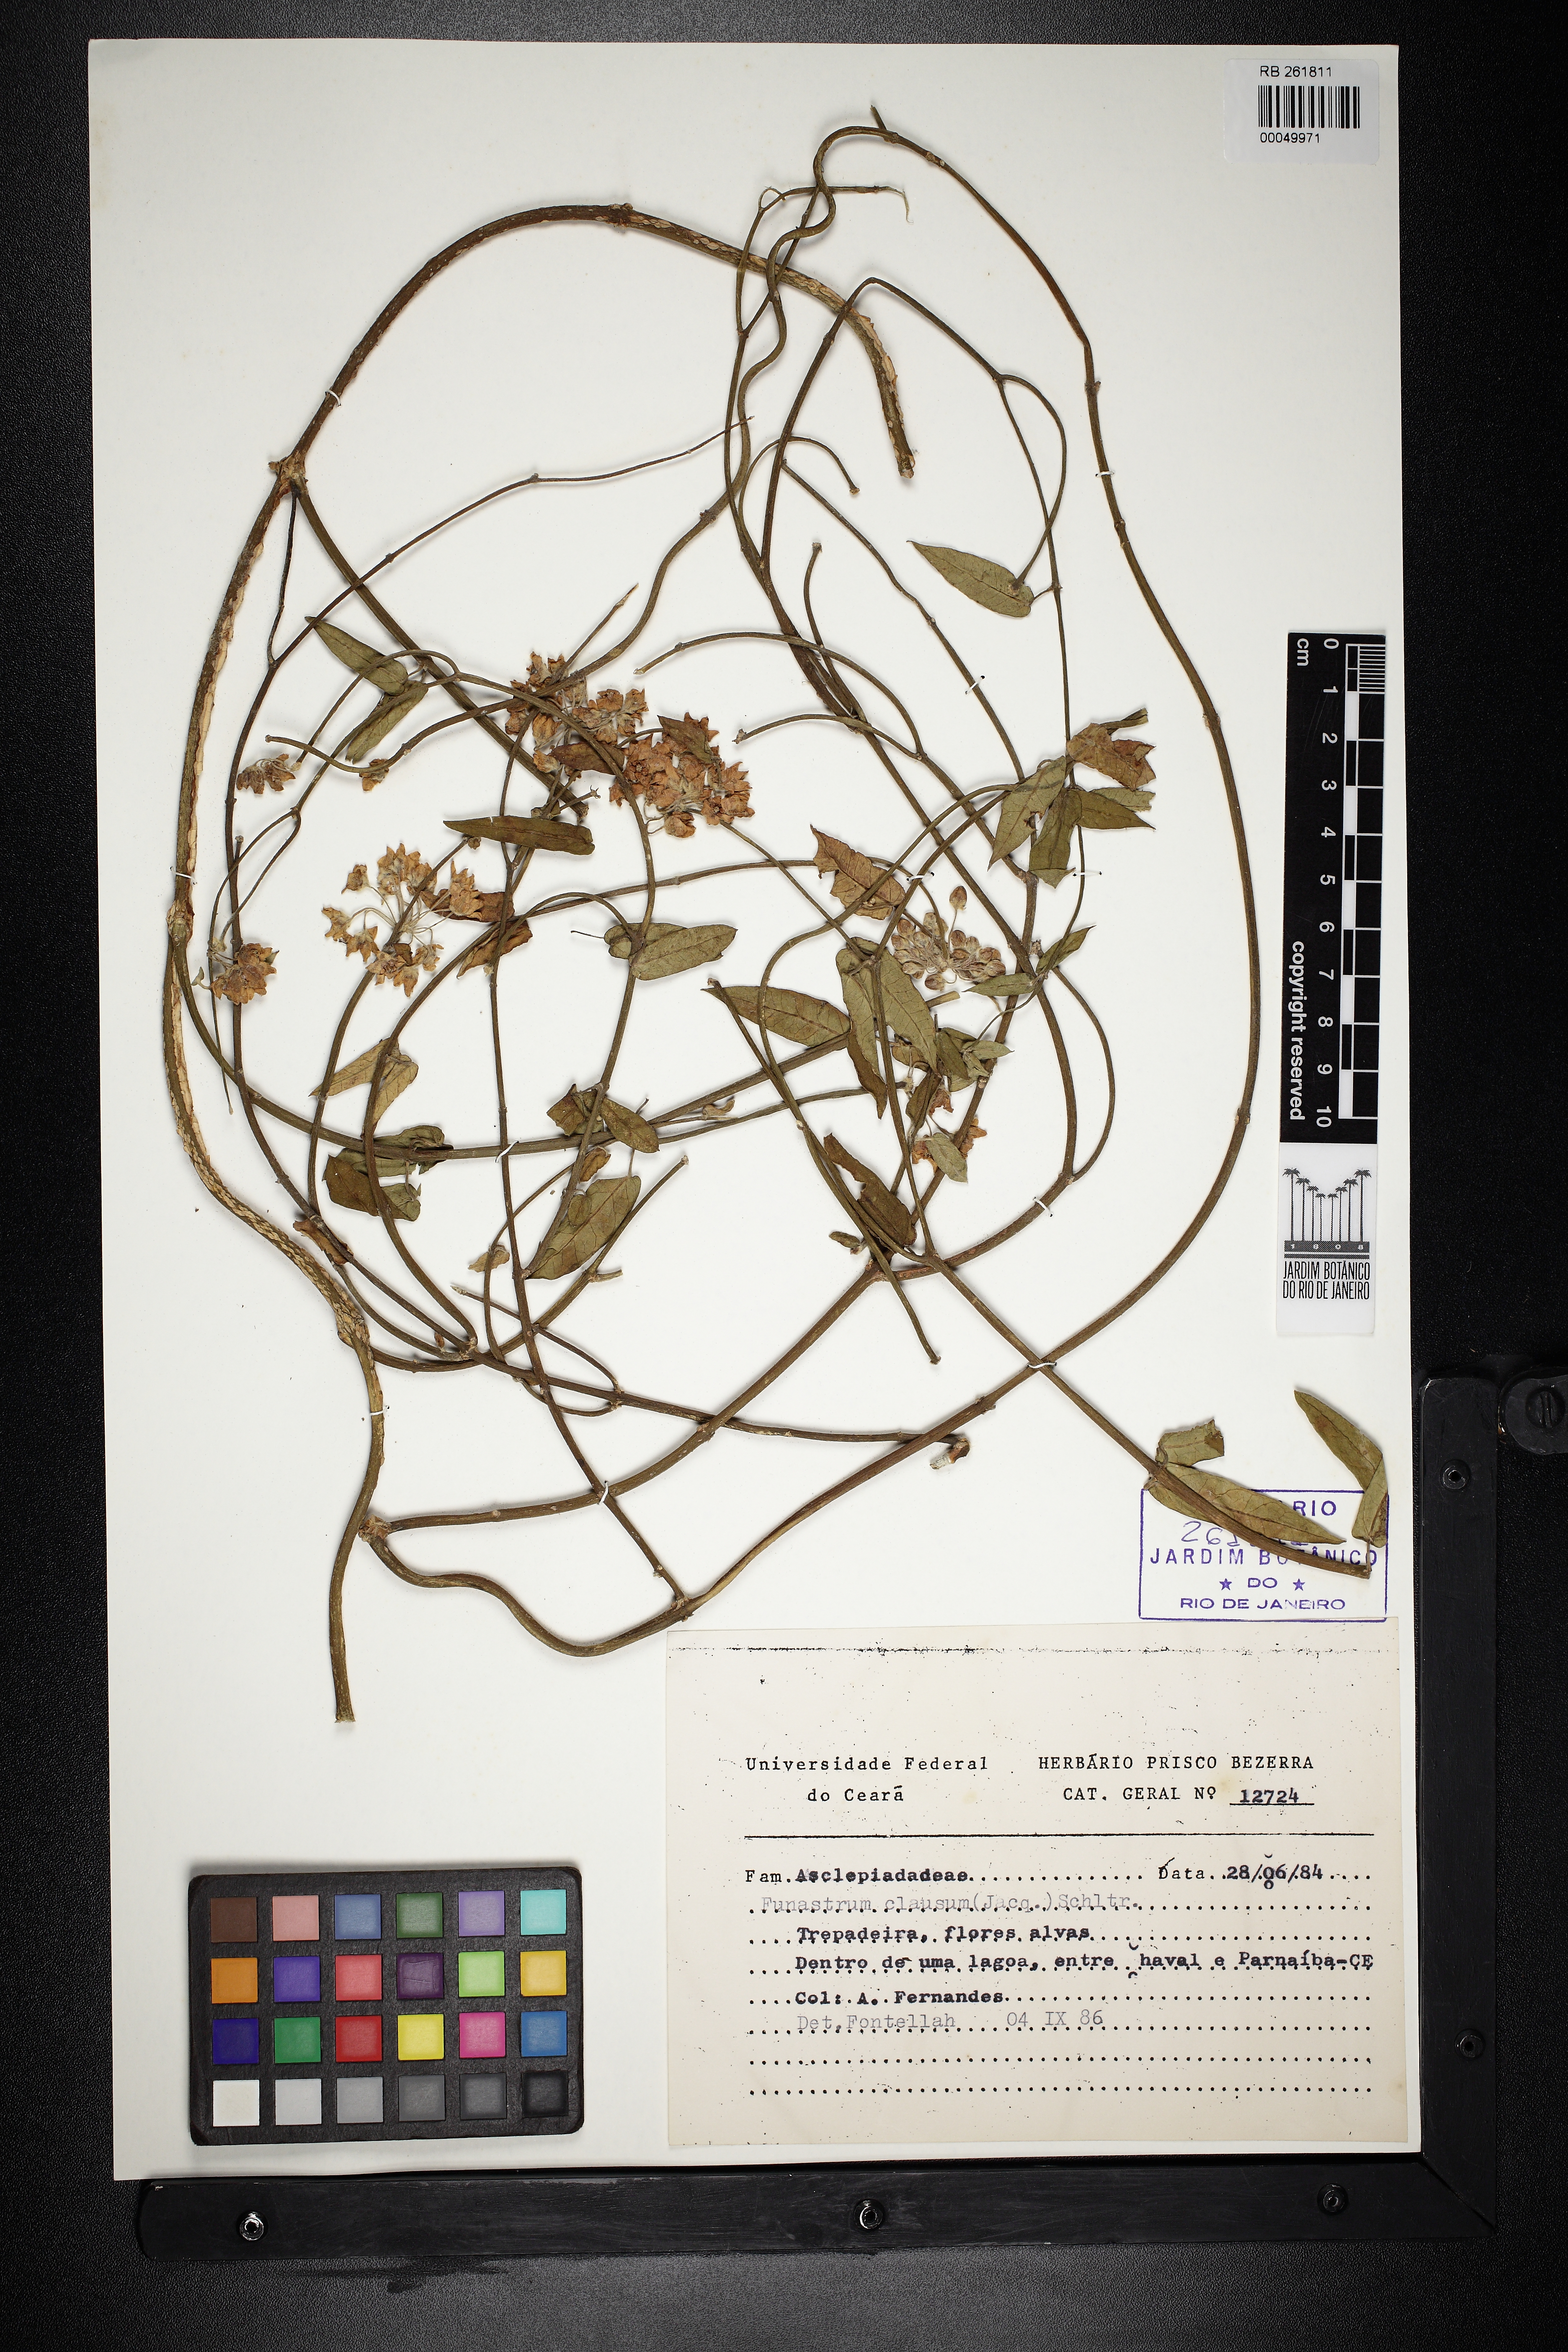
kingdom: Plantae
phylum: Tracheophyta
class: Magnoliopsida
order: Gentianales
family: Apocynaceae
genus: Funastrum
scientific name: Funastrum clausum
